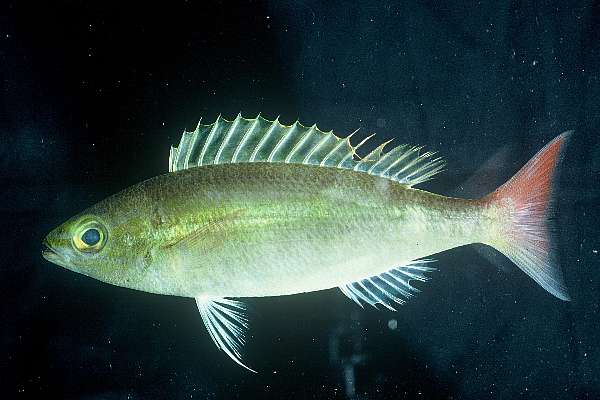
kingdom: Animalia
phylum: Chordata
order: Perciformes
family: Nemipteridae
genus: Pentapodus
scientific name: Pentapodus
